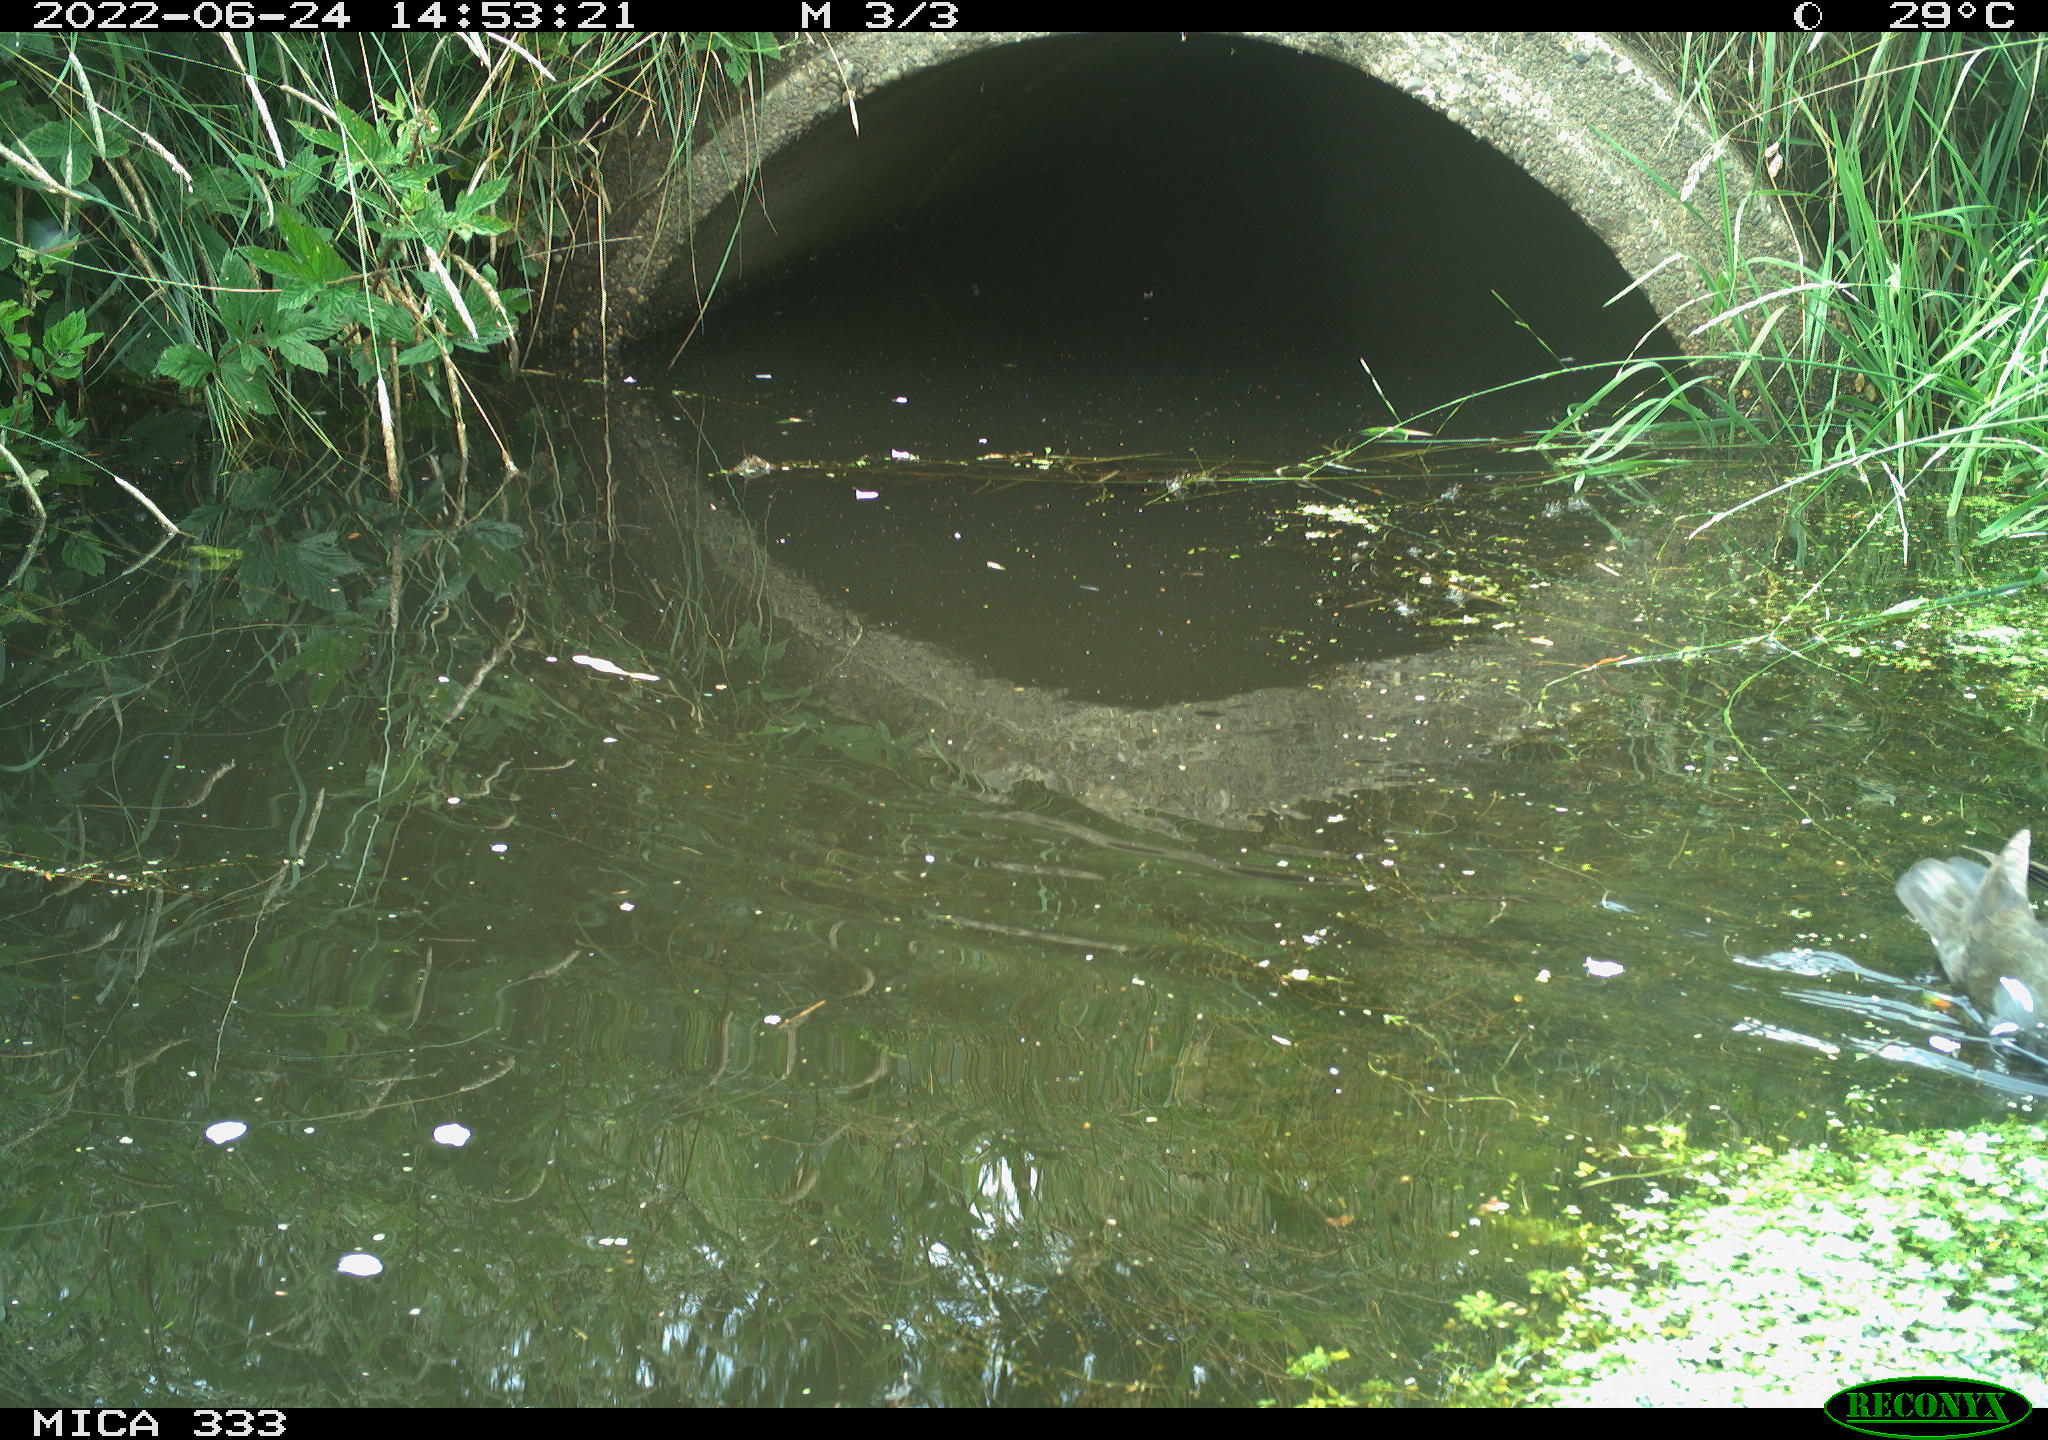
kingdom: Animalia
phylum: Chordata
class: Aves
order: Gruiformes
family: Rallidae
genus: Gallinula
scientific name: Gallinula chloropus
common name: Common moorhen
